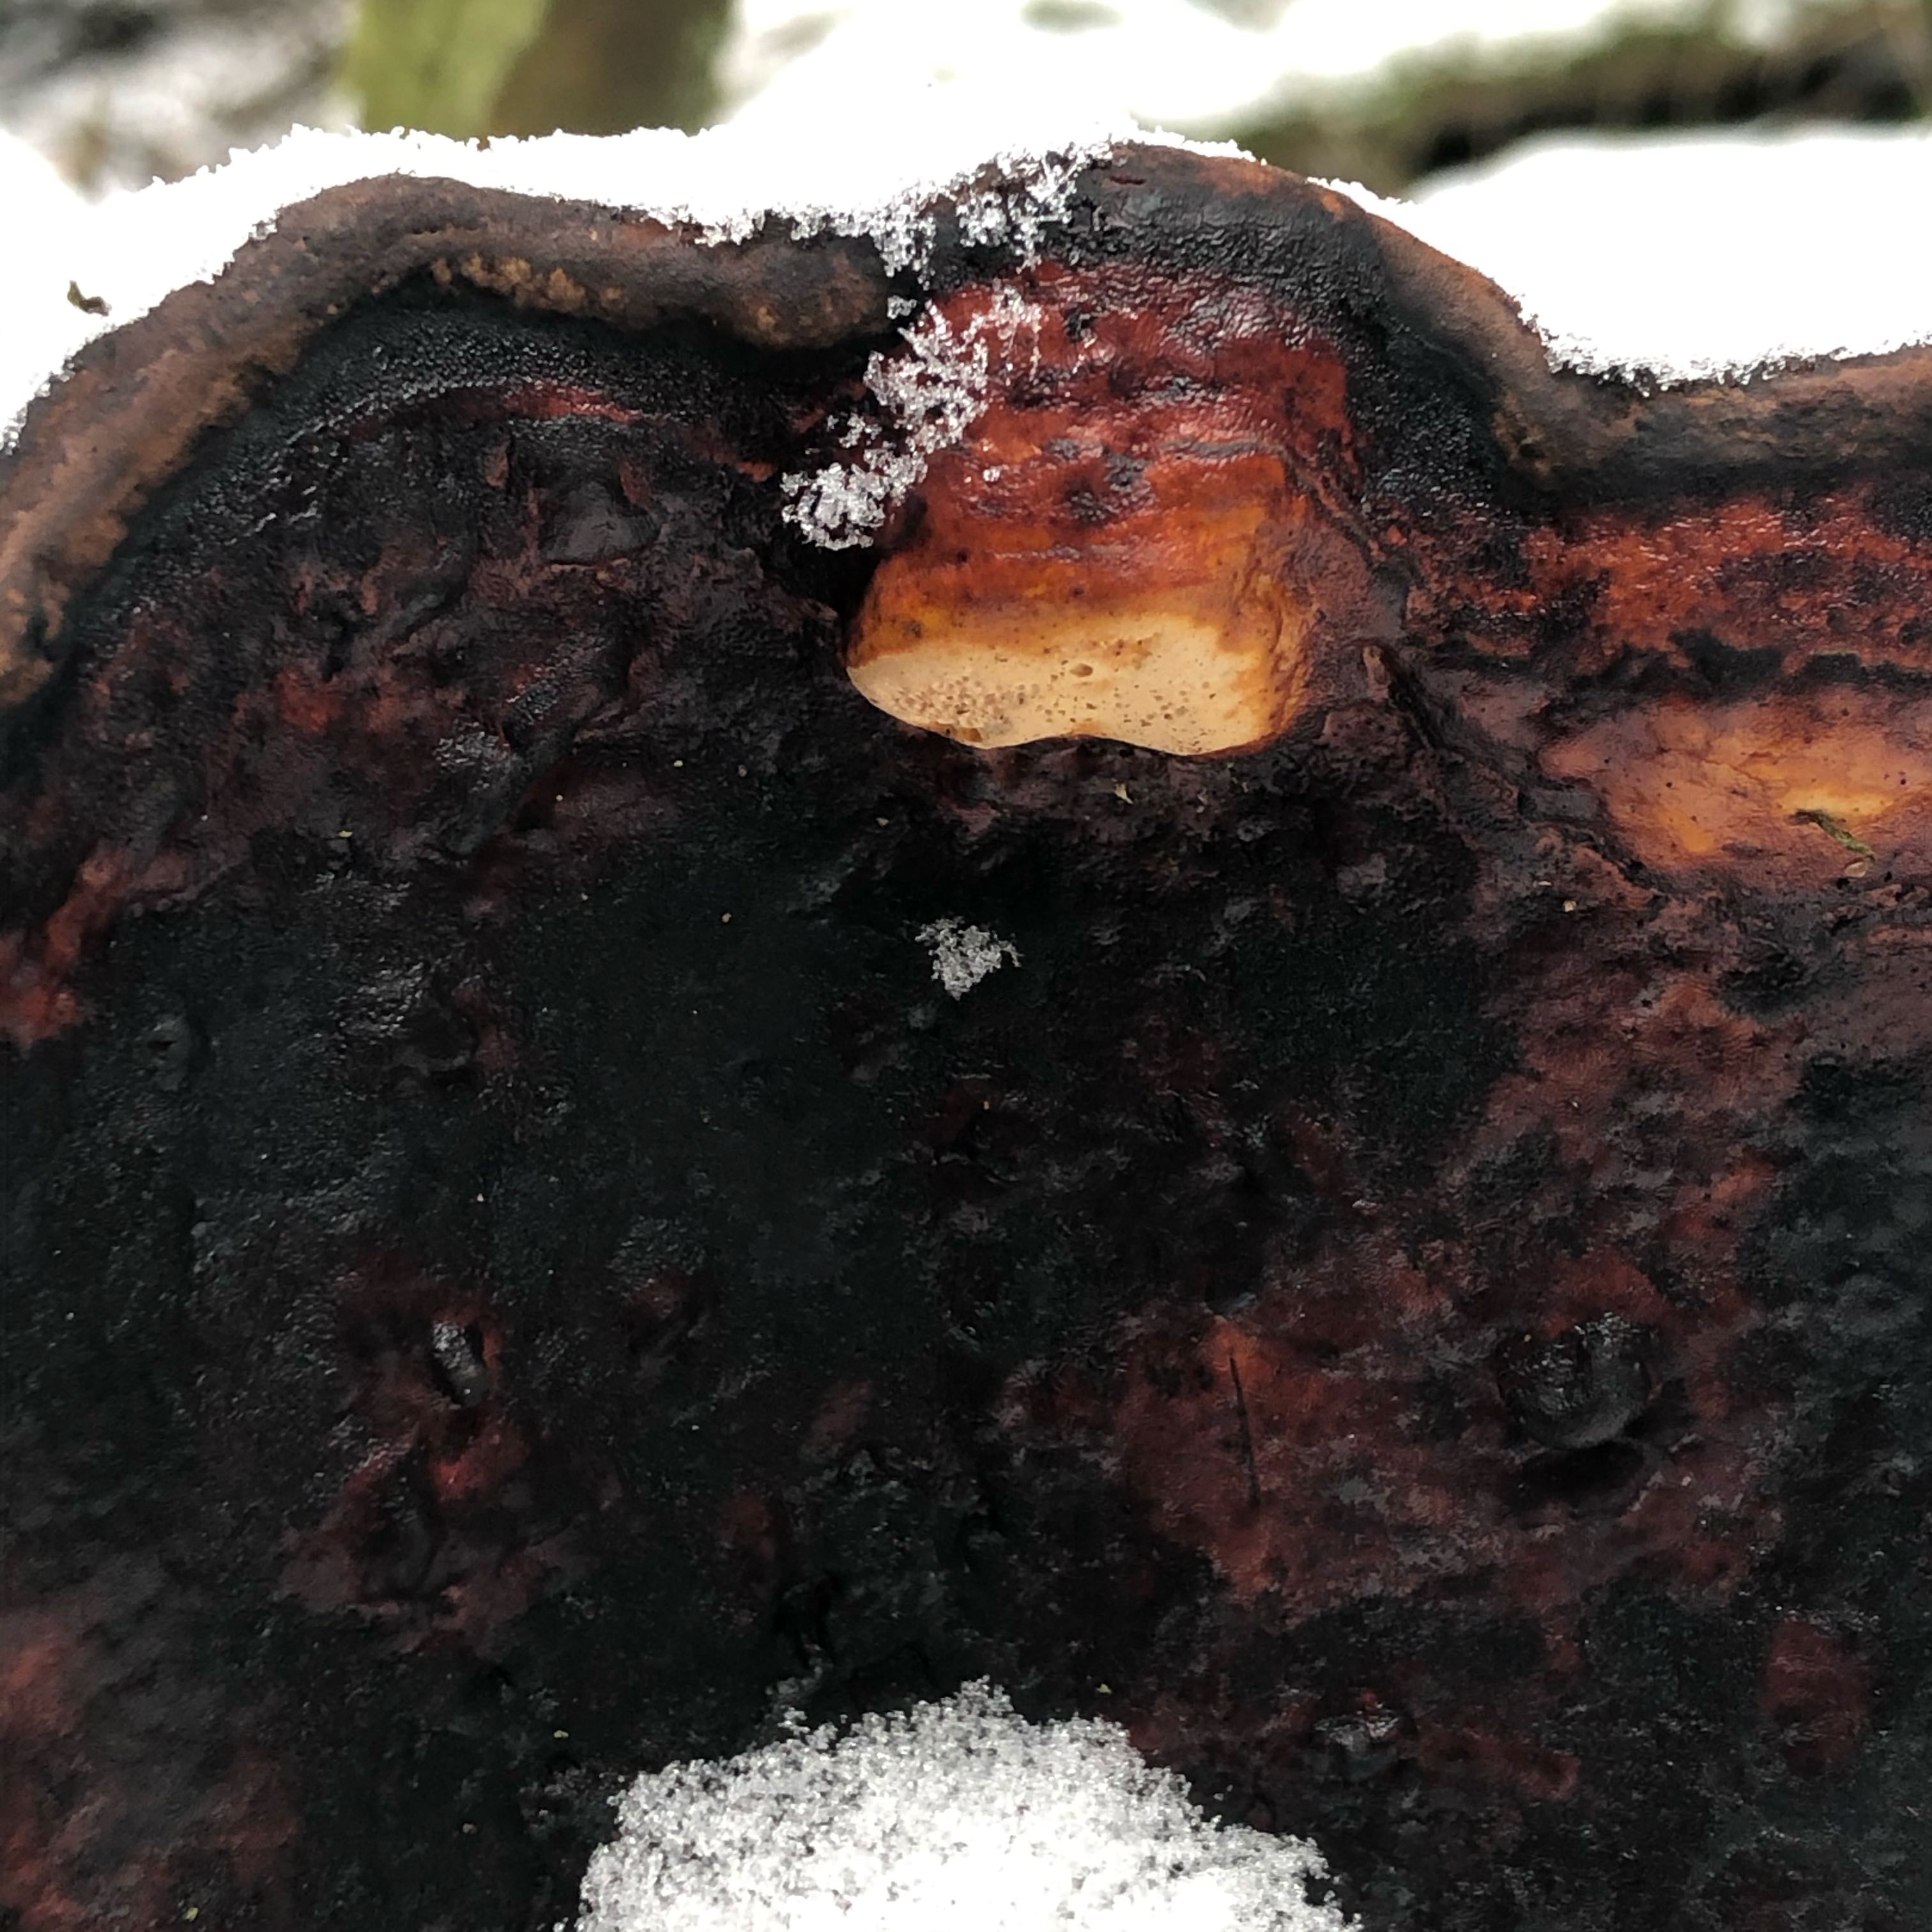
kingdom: Fungi
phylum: Basidiomycota
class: Agaricomycetes
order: Polyporales
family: Fomitopsidaceae
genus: Fomitopsis
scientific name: Fomitopsis pinicola
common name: randbæltet hovporesvamp
